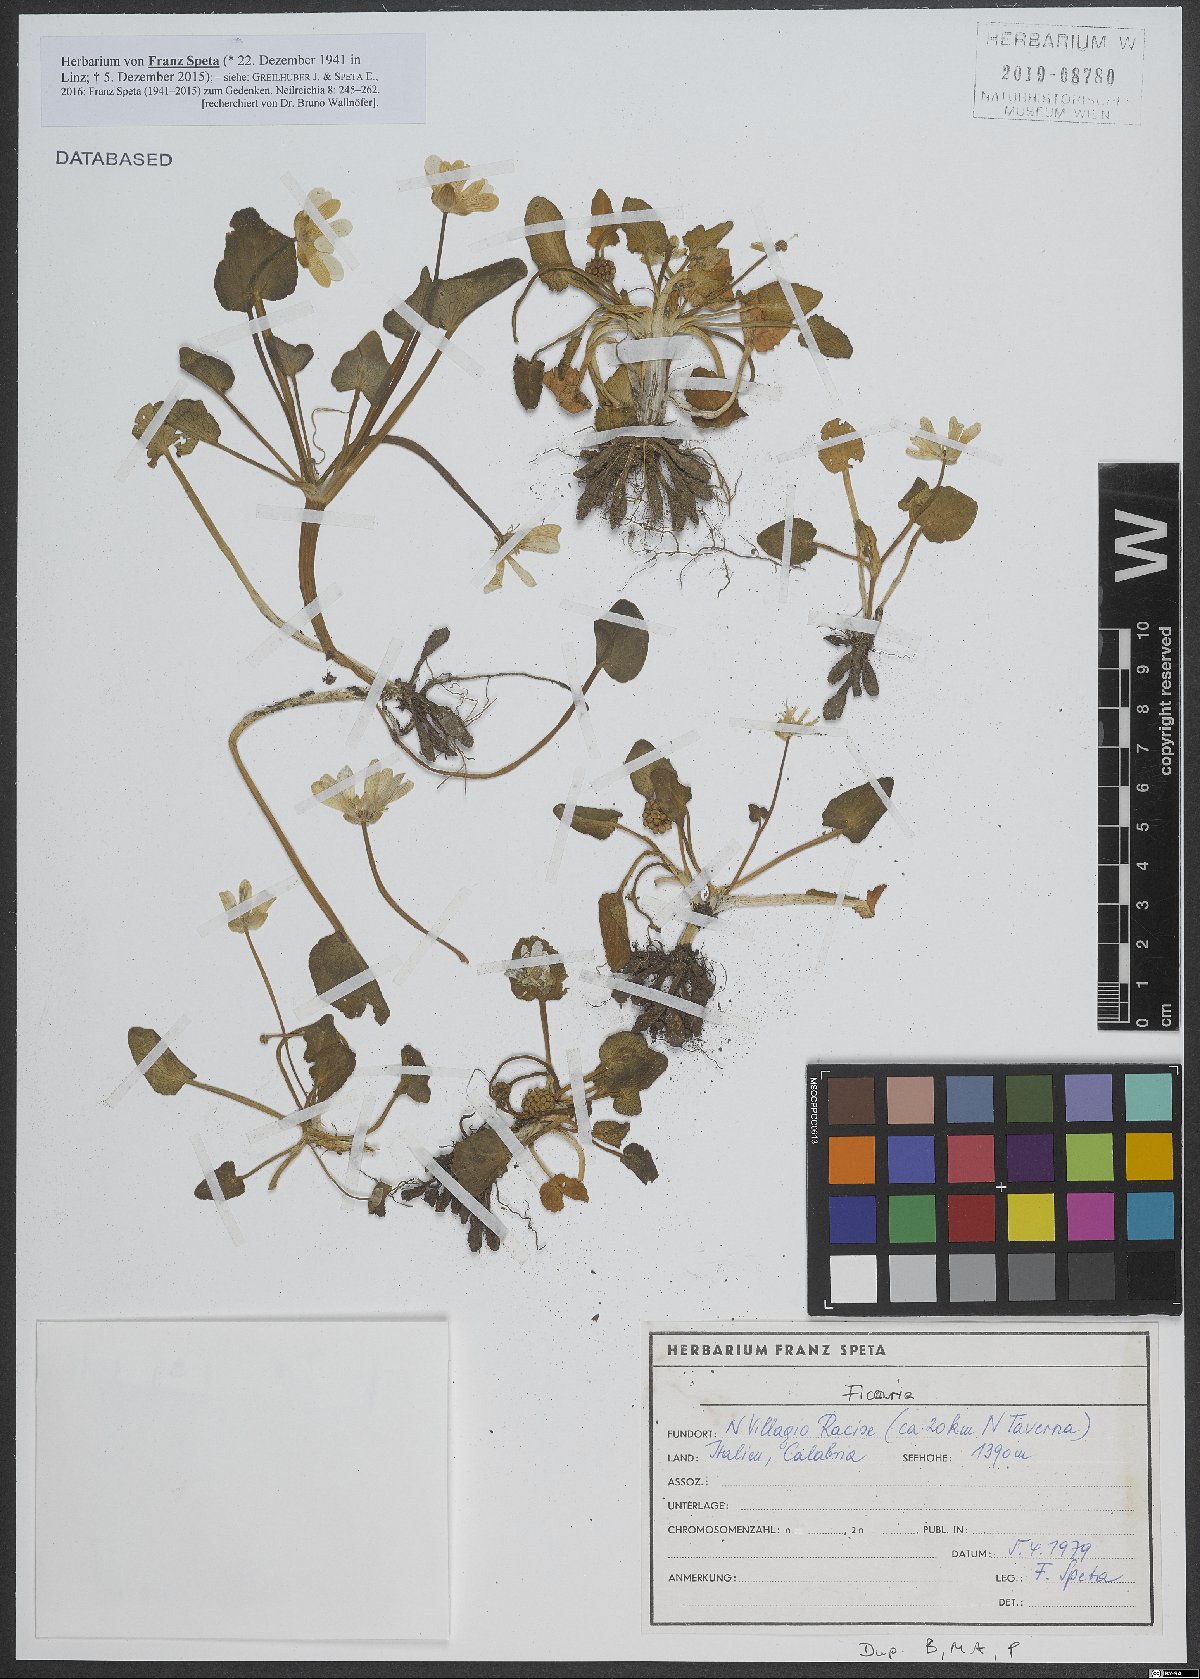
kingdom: Plantae
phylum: Tracheophyta
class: Magnoliopsida
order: Ranunculales
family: Ranunculaceae
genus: Ficaria
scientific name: Ficaria
